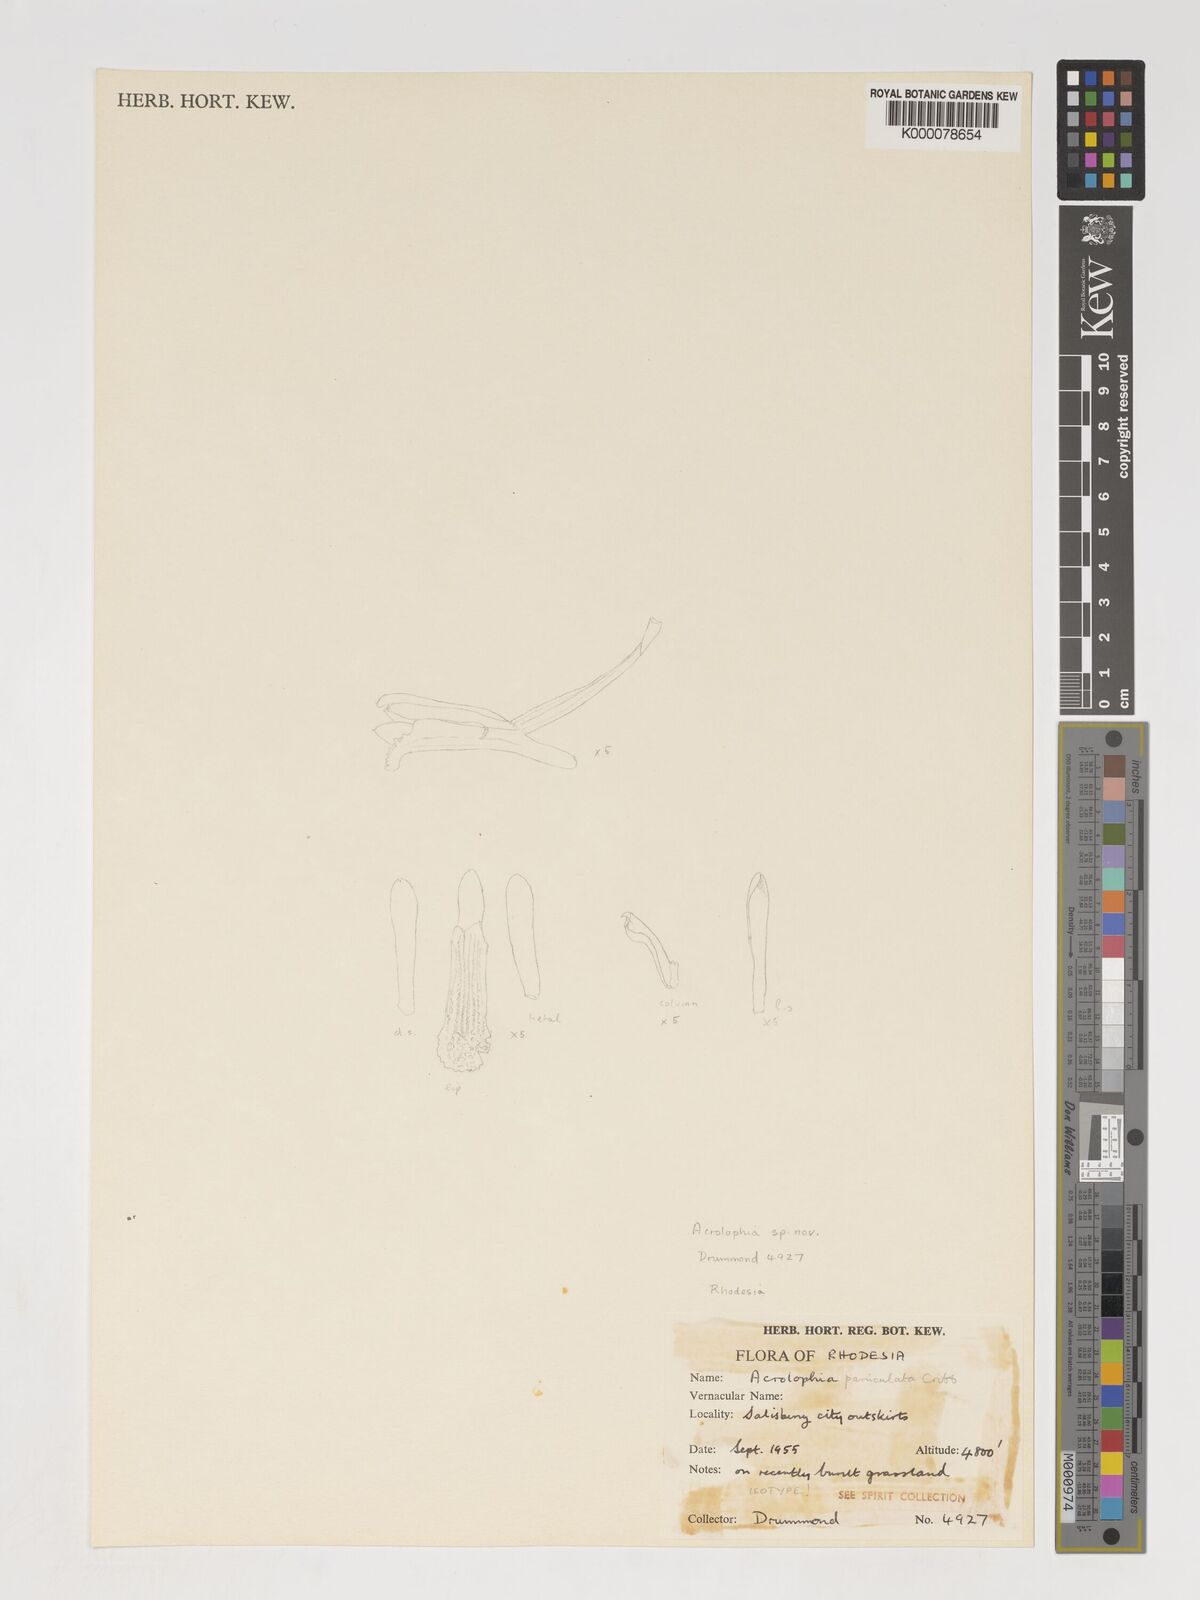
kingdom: Plantae
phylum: Tracheophyta
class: Liliopsida
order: Asparagales
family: Orchidaceae
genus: Eulophia
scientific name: Eulophia ramifera
